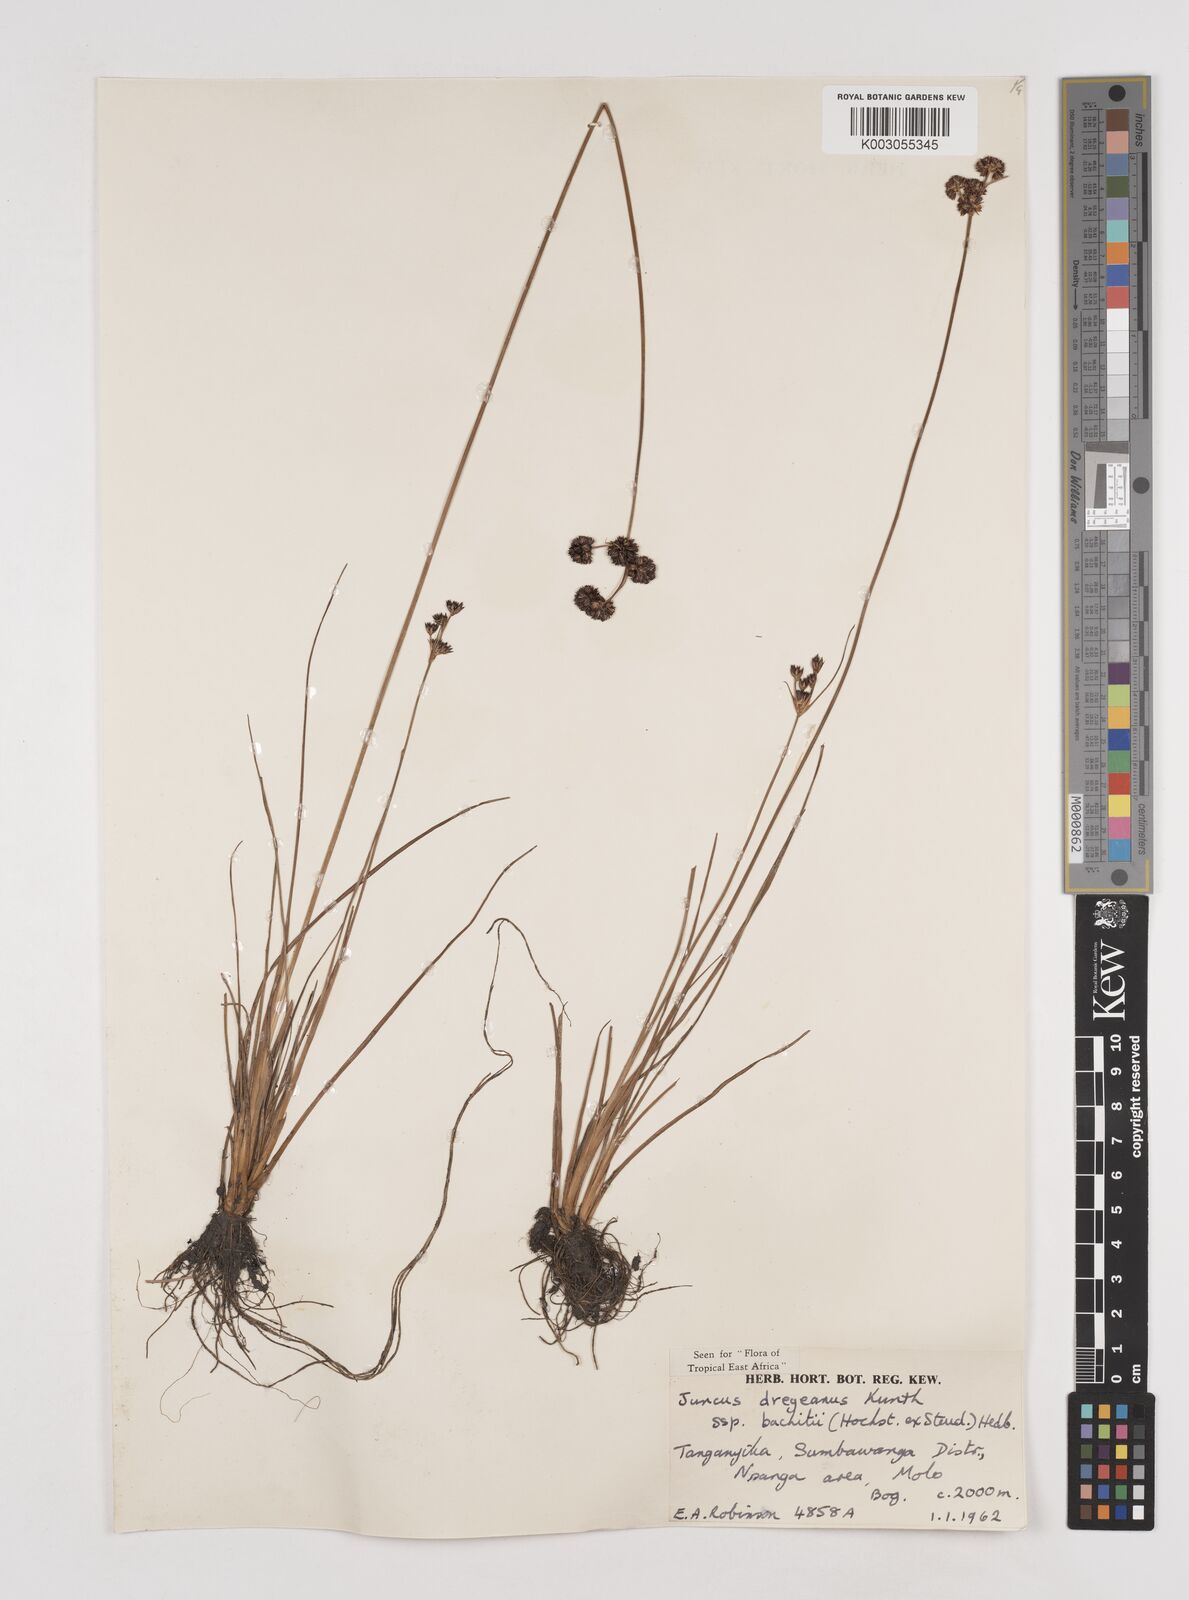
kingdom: Plantae
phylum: Tracheophyta
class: Liliopsida
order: Poales
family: Juncaceae
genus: Juncus
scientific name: Juncus dregeanus
